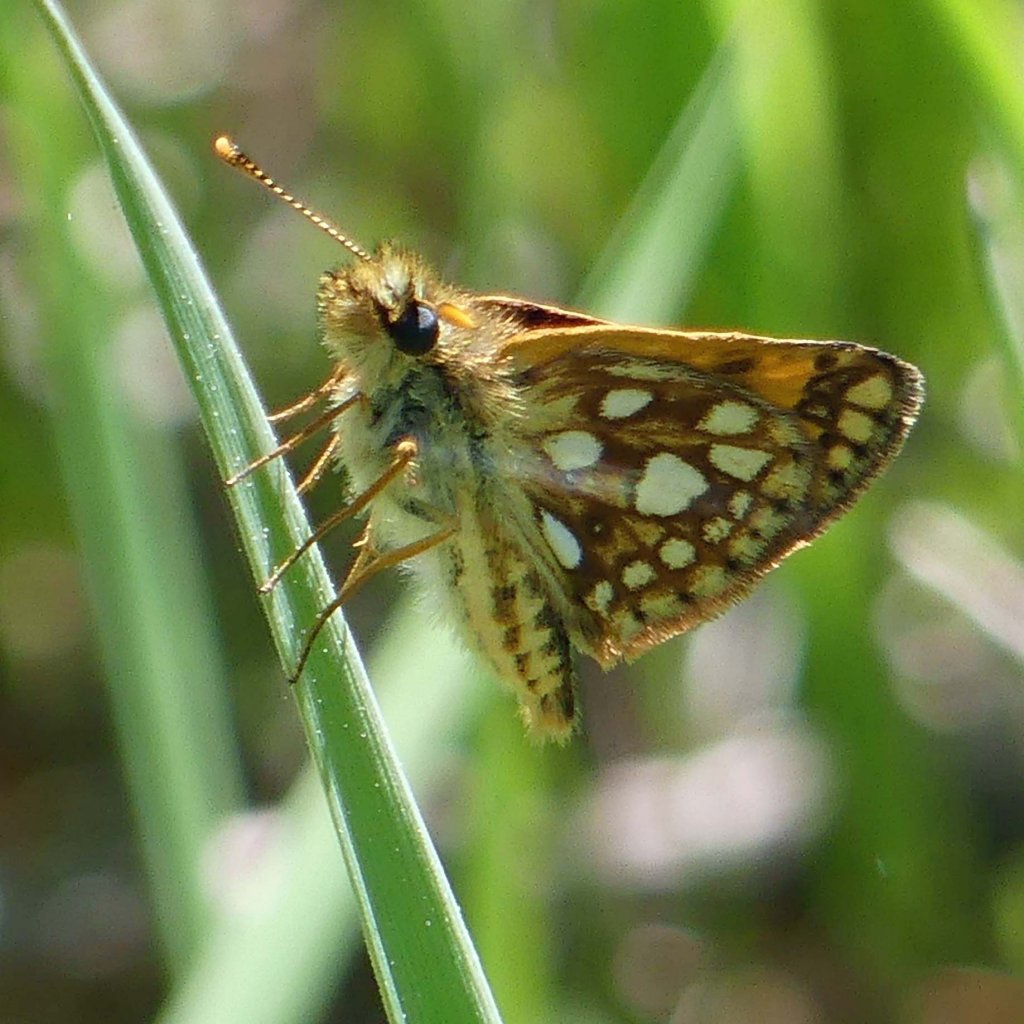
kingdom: Animalia
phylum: Arthropoda
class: Insecta
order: Lepidoptera
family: Hesperiidae
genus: Carterocephalus
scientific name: Carterocephalus palaemon
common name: Chequered Skipper
